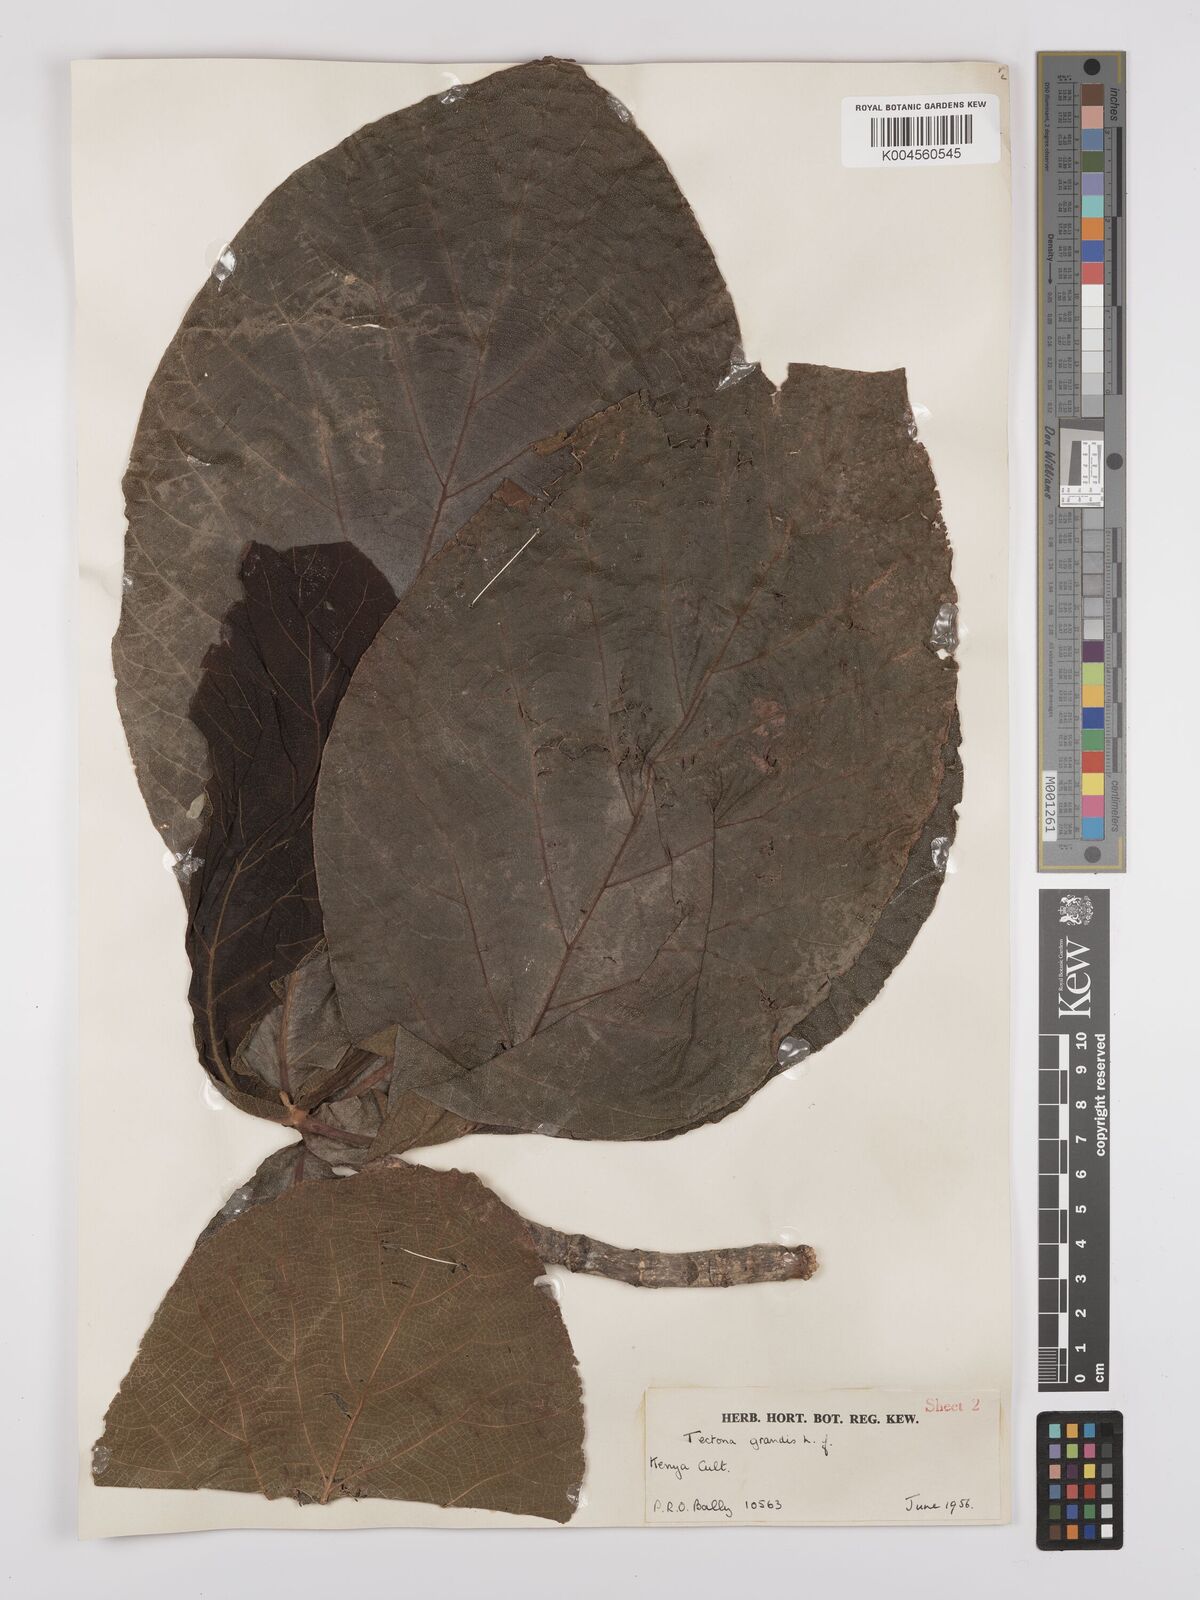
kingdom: Plantae
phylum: Tracheophyta
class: Magnoliopsida
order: Lamiales
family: Lamiaceae
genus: Tectona
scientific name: Tectona grandis
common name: Teak
